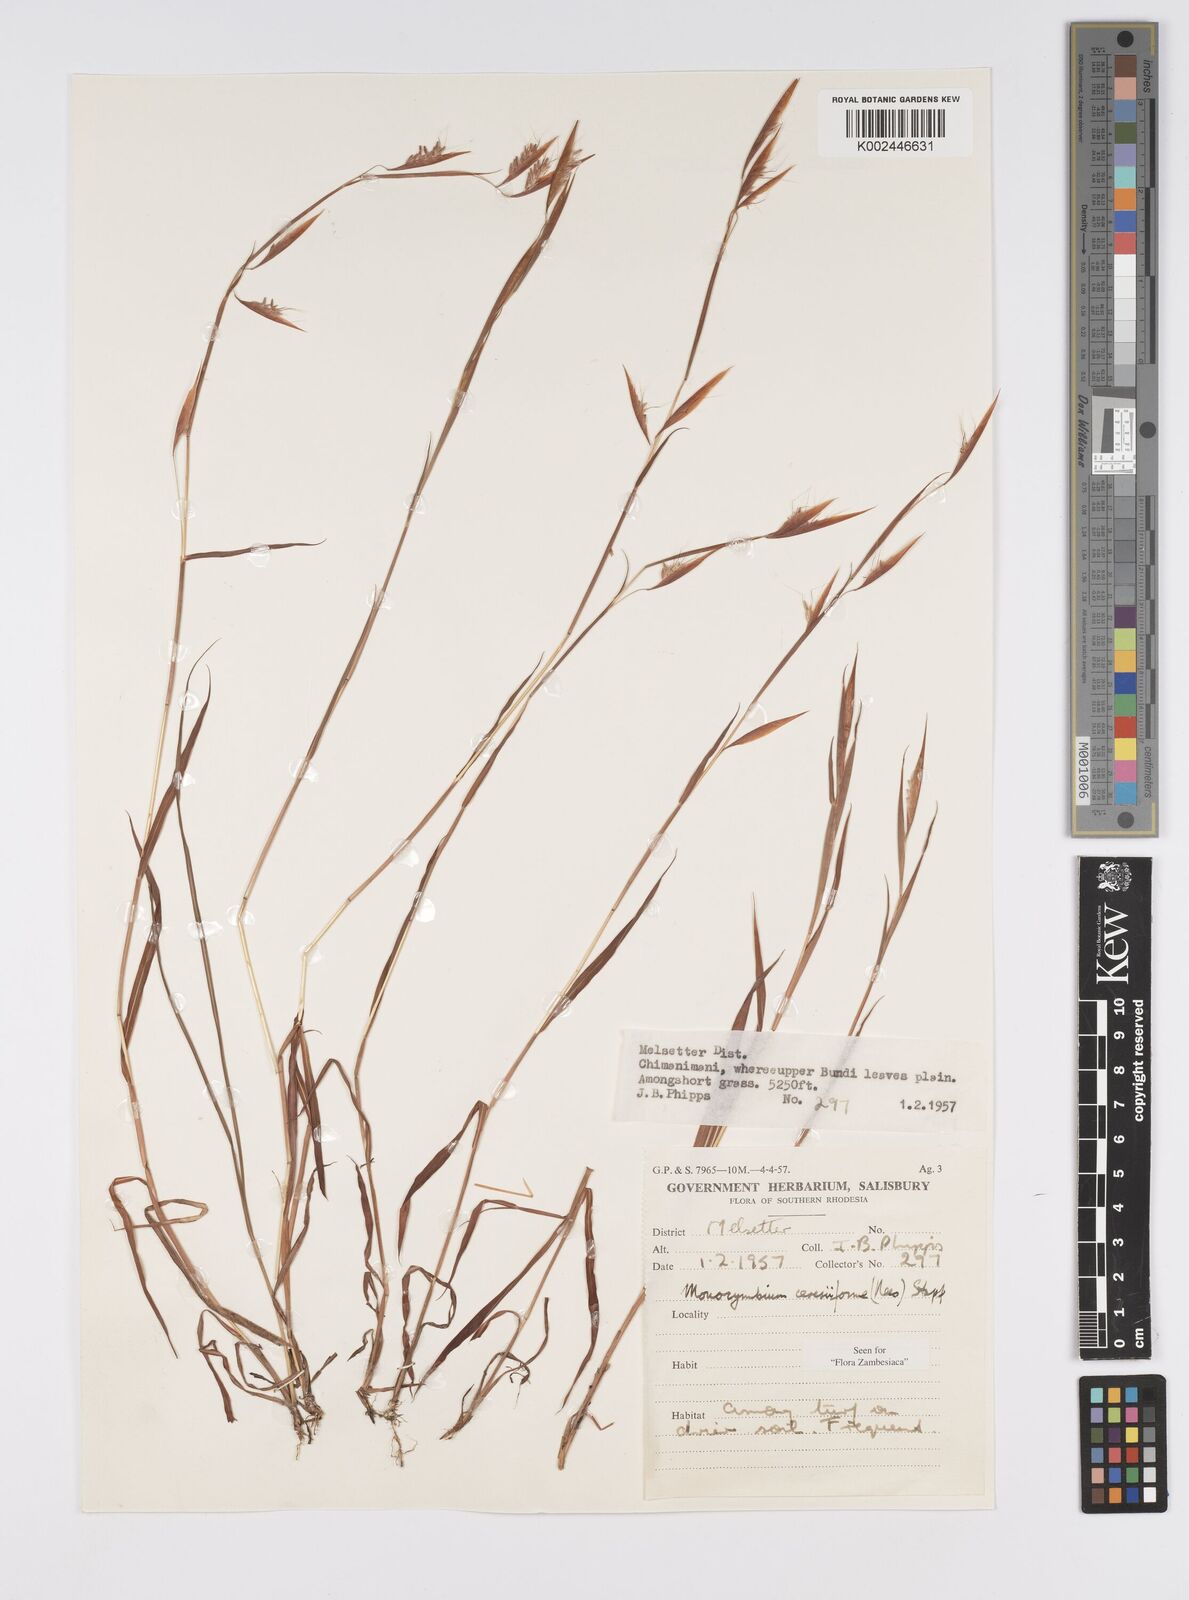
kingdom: Plantae
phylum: Tracheophyta
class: Liliopsida
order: Poales
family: Poaceae
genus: Monocymbium
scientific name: Monocymbium ceresiiforme
